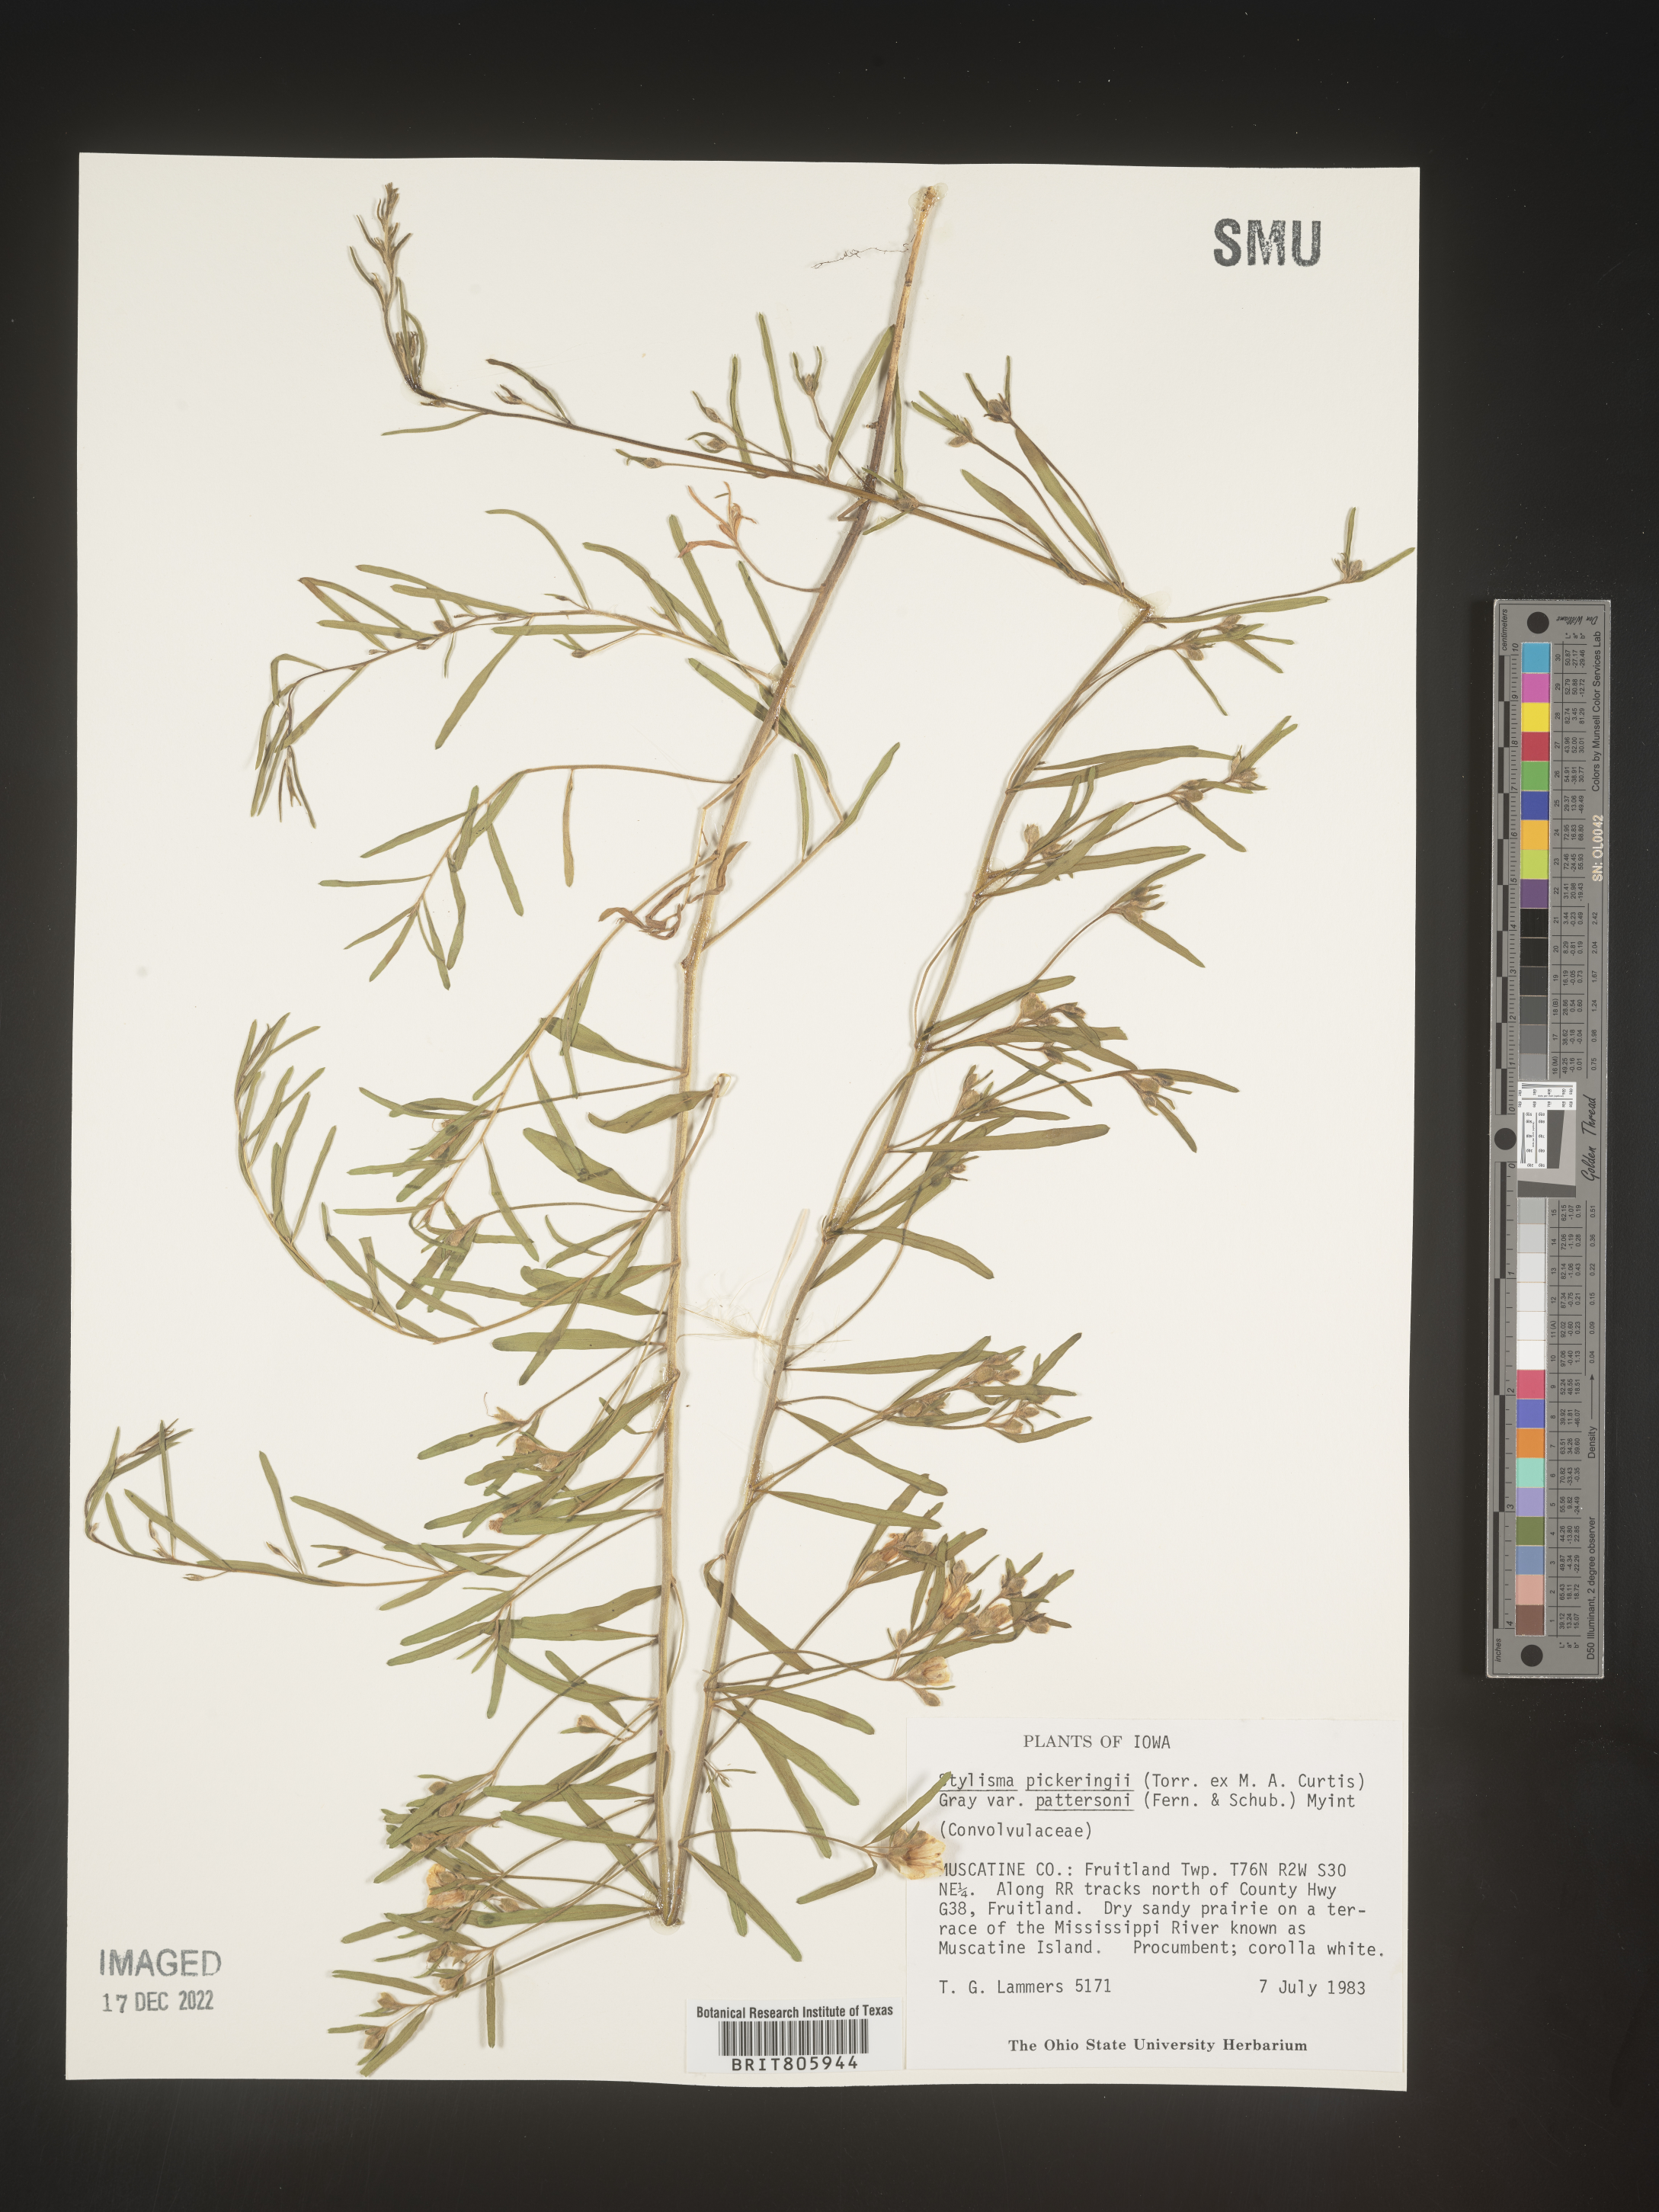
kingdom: Plantae
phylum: Tracheophyta
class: Magnoliopsida
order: Solanales
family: Convolvulaceae
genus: Stylisma
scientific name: Stylisma
